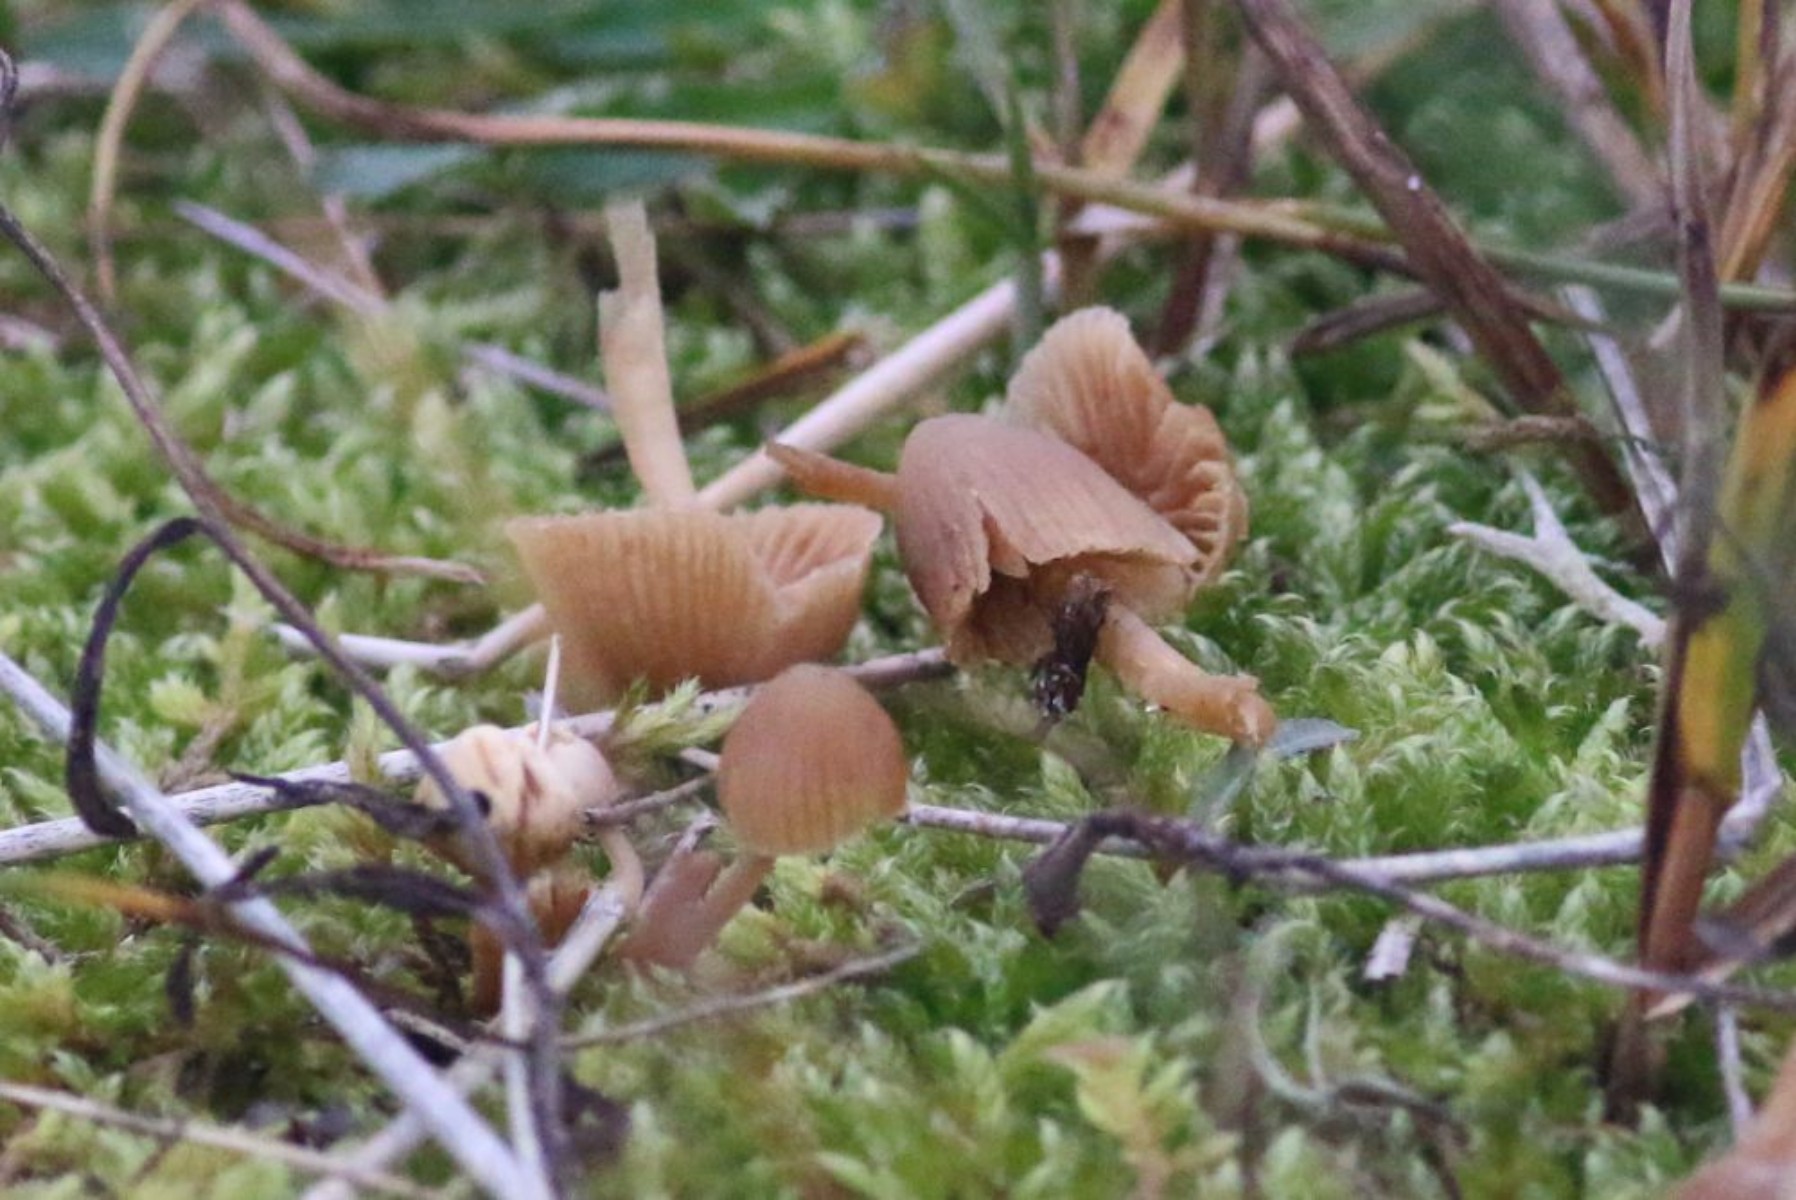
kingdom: Fungi
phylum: Basidiomycota
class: Agaricomycetes
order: Agaricales
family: Hymenogastraceae
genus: Galerina
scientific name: Galerina
